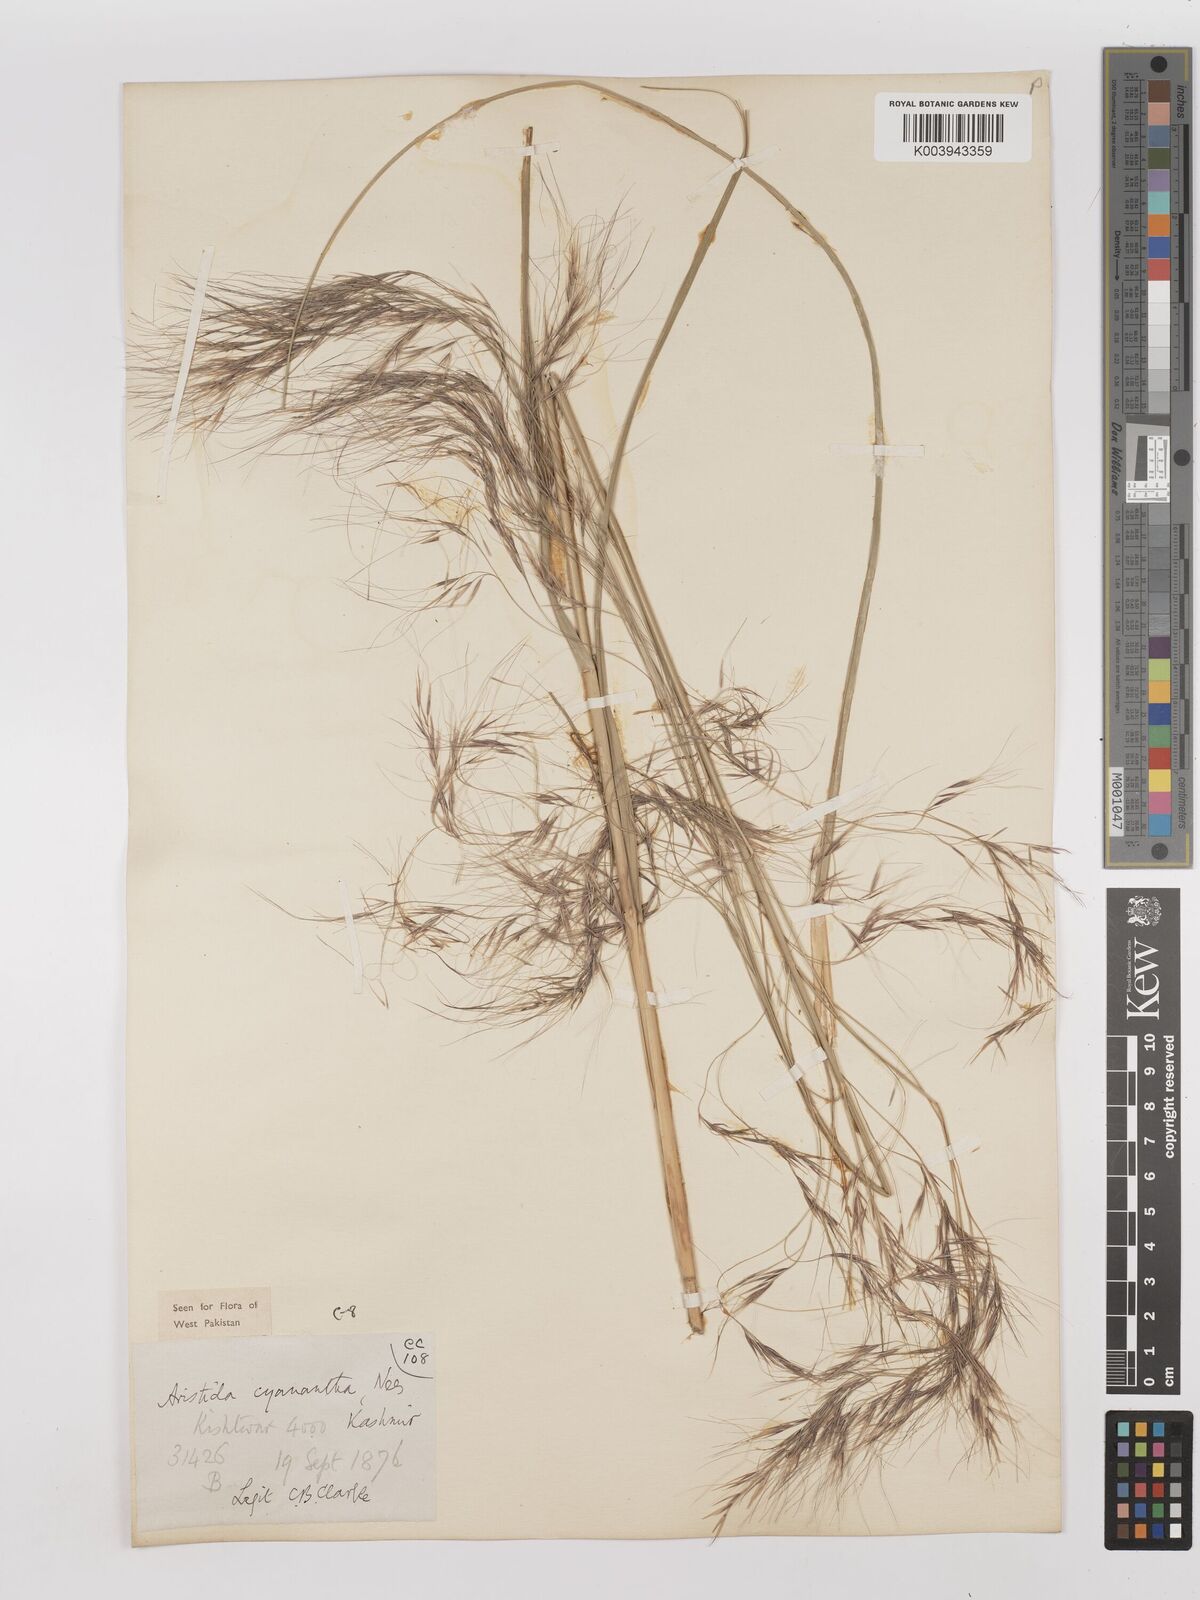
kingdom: Plantae
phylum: Tracheophyta
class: Liliopsida
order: Poales
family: Poaceae
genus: Aristida
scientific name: Aristida cyanantha
